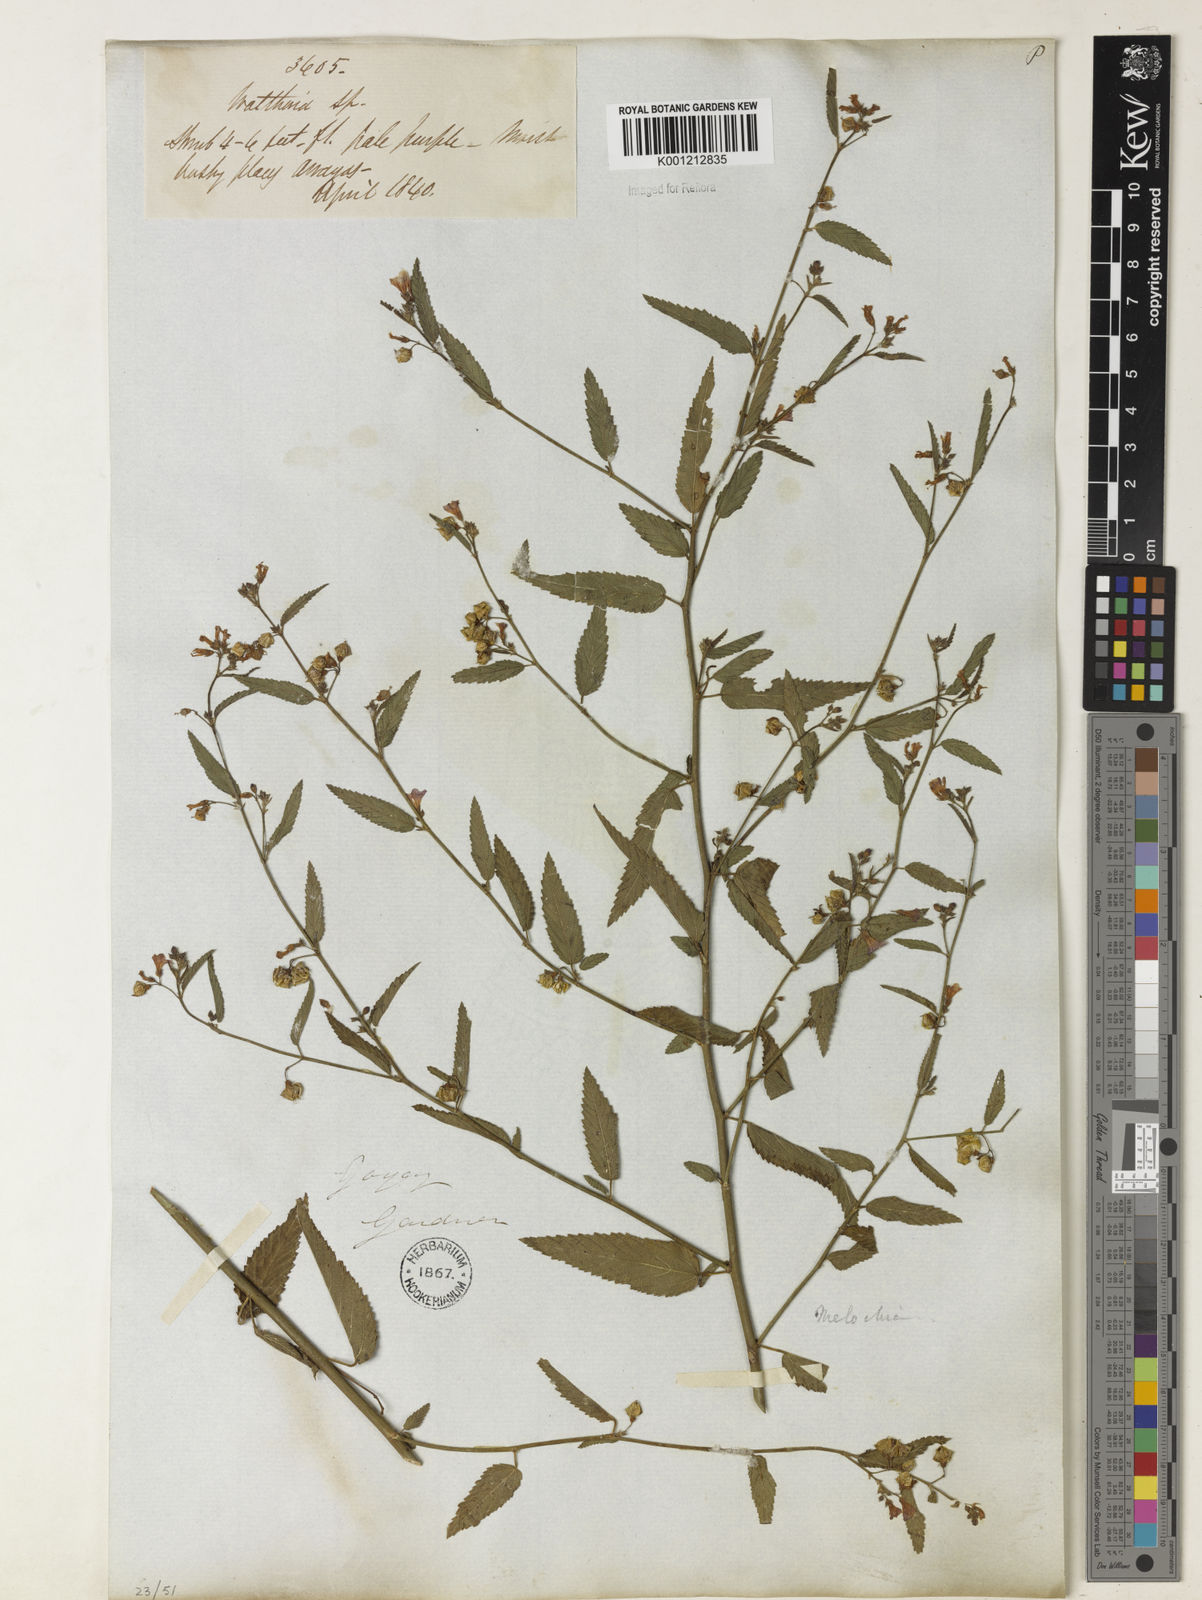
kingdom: Plantae
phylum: Tracheophyta
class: Magnoliopsida
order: Malvales
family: Malvaceae
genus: Melochia
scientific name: Melochia pyramidata
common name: Pyramidflower
